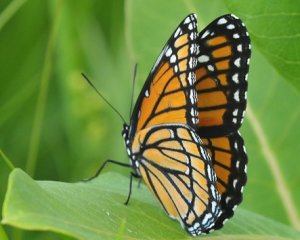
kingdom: Animalia
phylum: Arthropoda
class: Insecta
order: Lepidoptera
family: Nymphalidae
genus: Limenitis
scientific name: Limenitis archippus
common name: Viceroy
